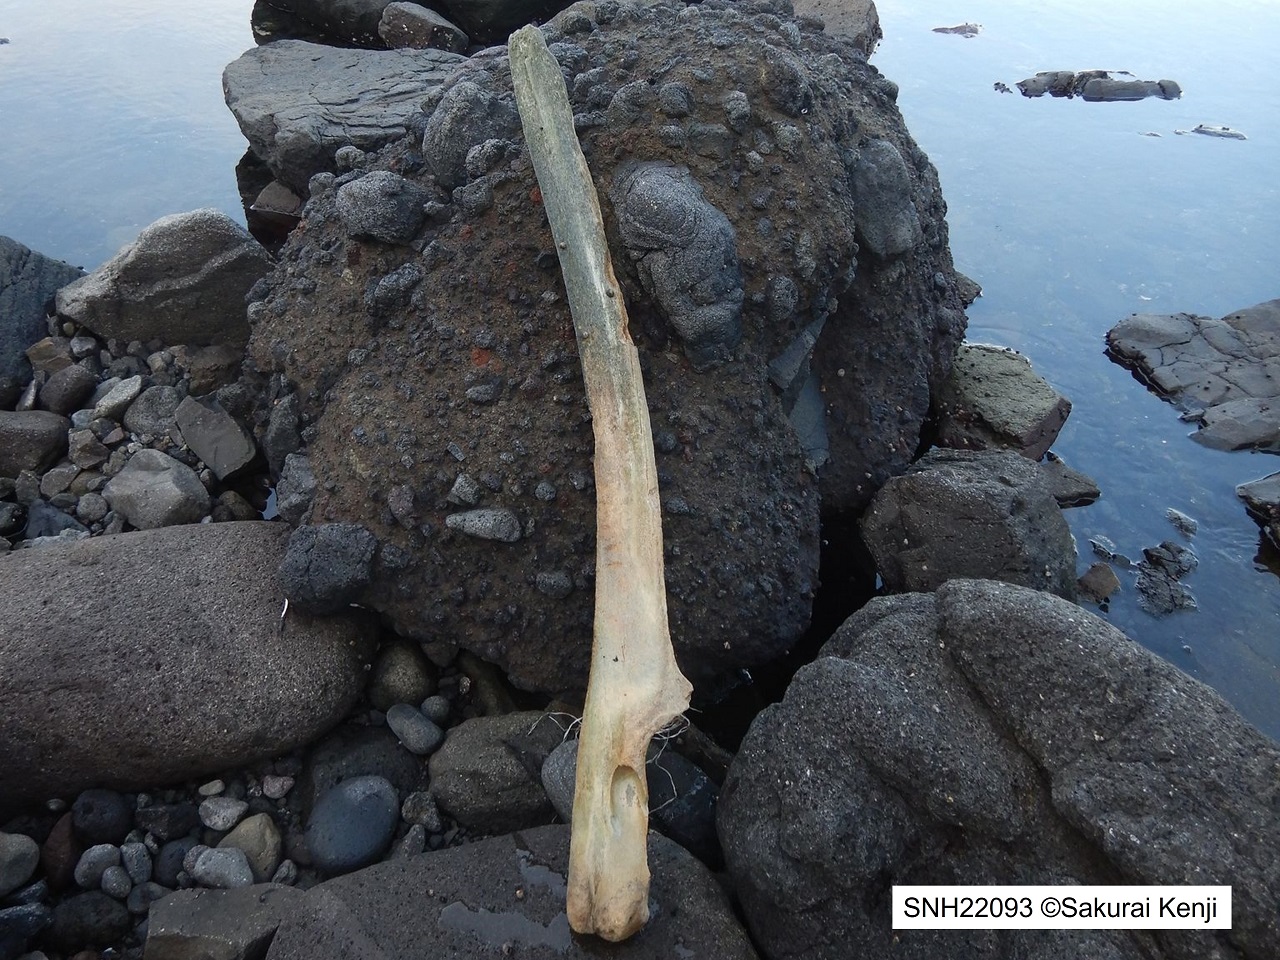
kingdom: Animalia
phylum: Chordata
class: Mammalia
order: Cetacea
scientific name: Cetacea
